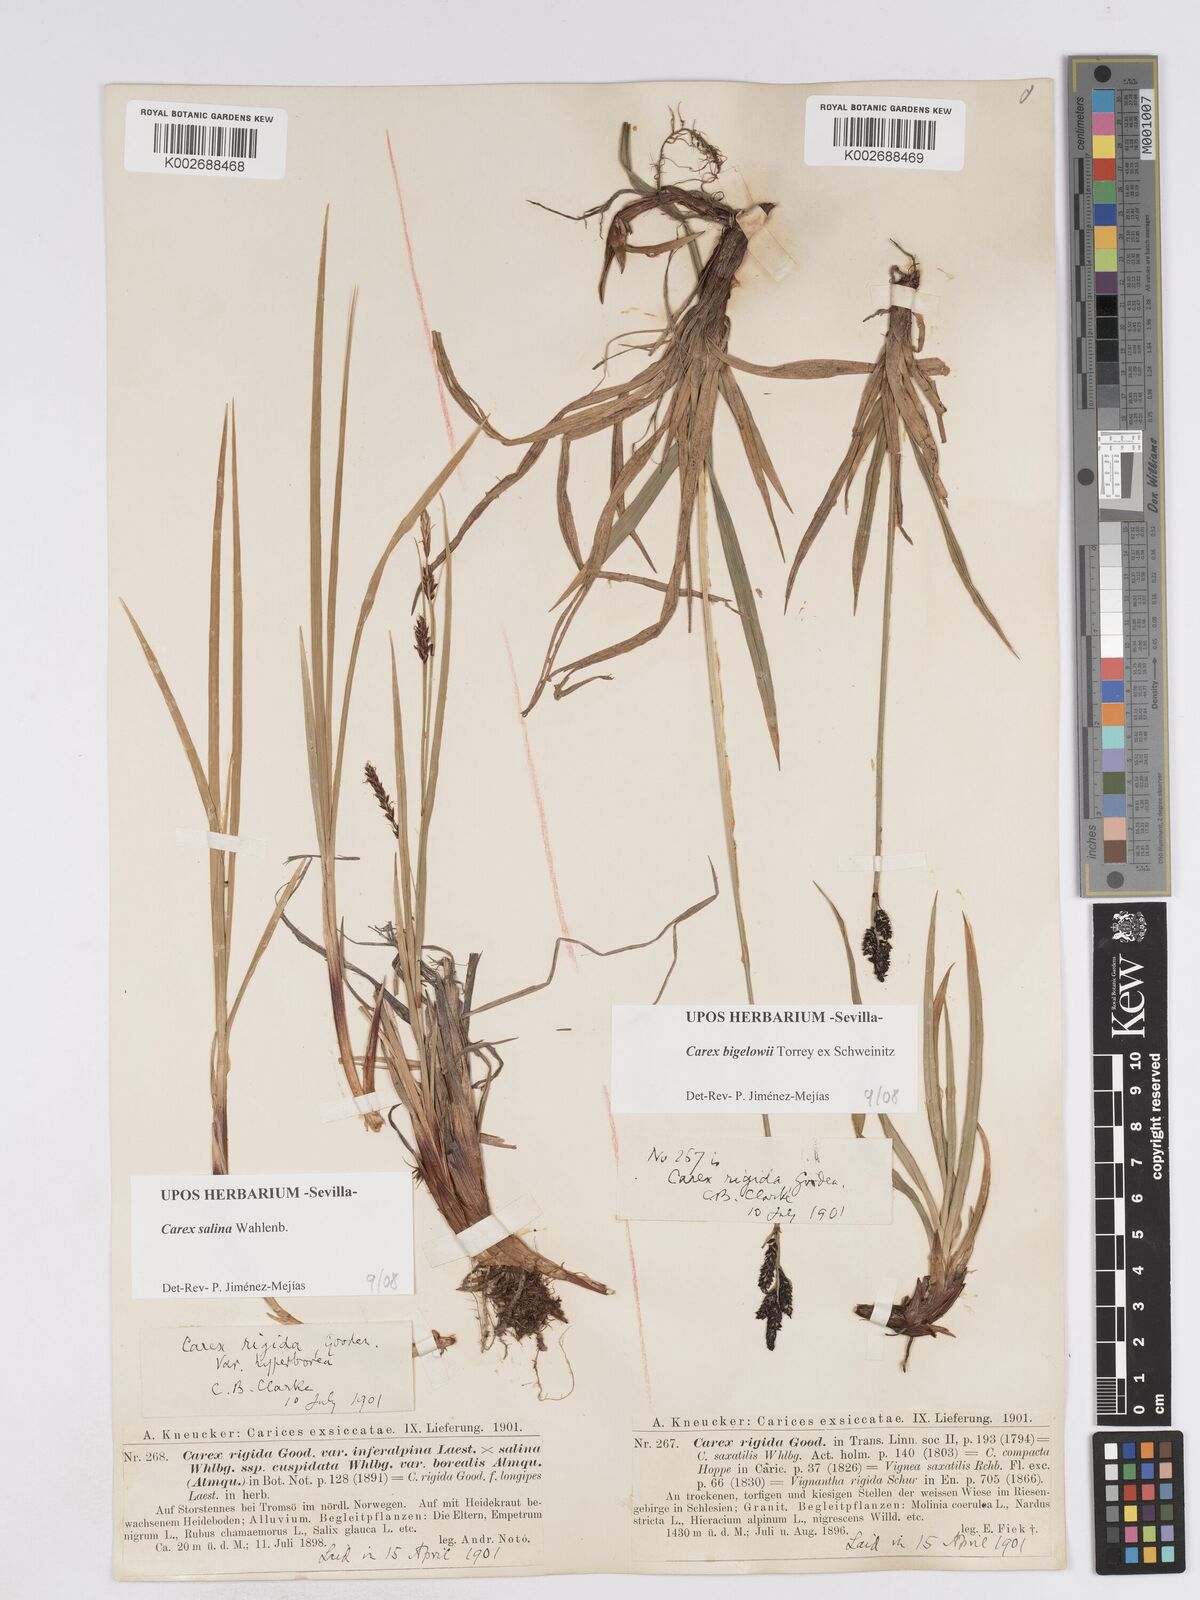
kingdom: Plantae
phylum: Tracheophyta
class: Liliopsida
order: Poales
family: Cyperaceae
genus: Carex
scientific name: Carex salina
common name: Saltmarsh sedge
